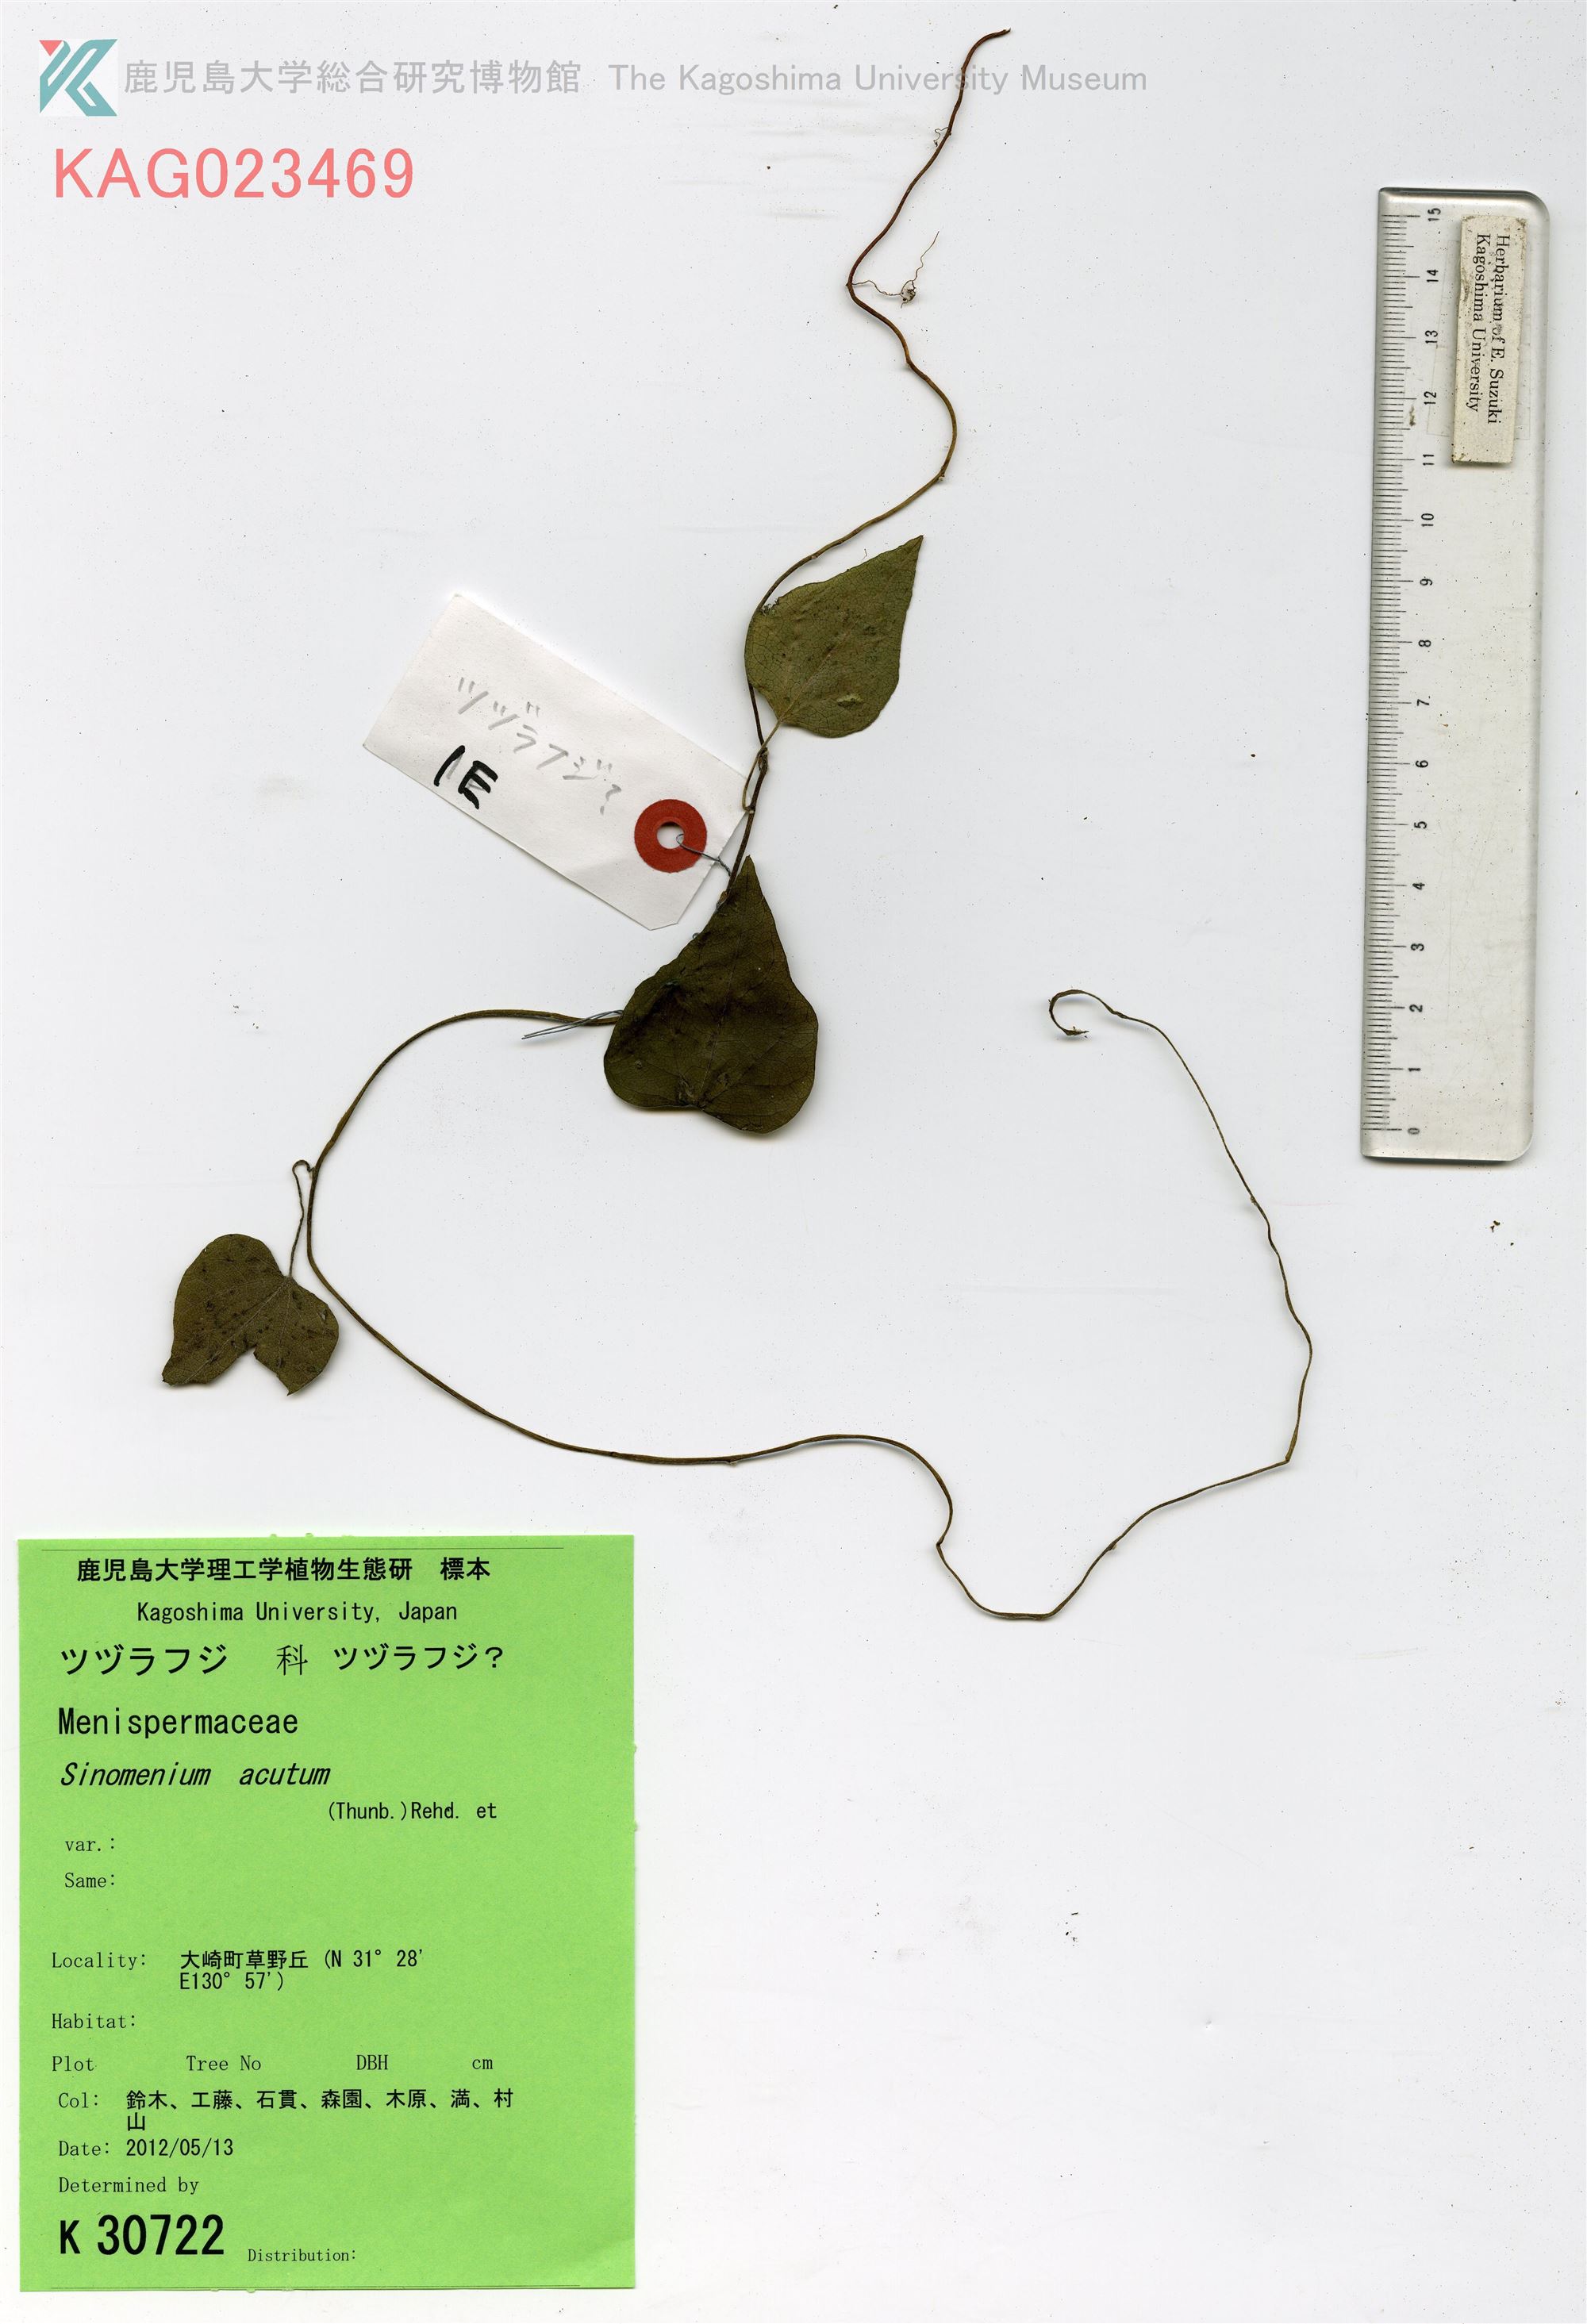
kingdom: Plantae
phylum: Tracheophyta
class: Magnoliopsida
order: Ranunculales
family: Menispermaceae
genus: Sinomenium
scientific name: Sinomenium acutum
